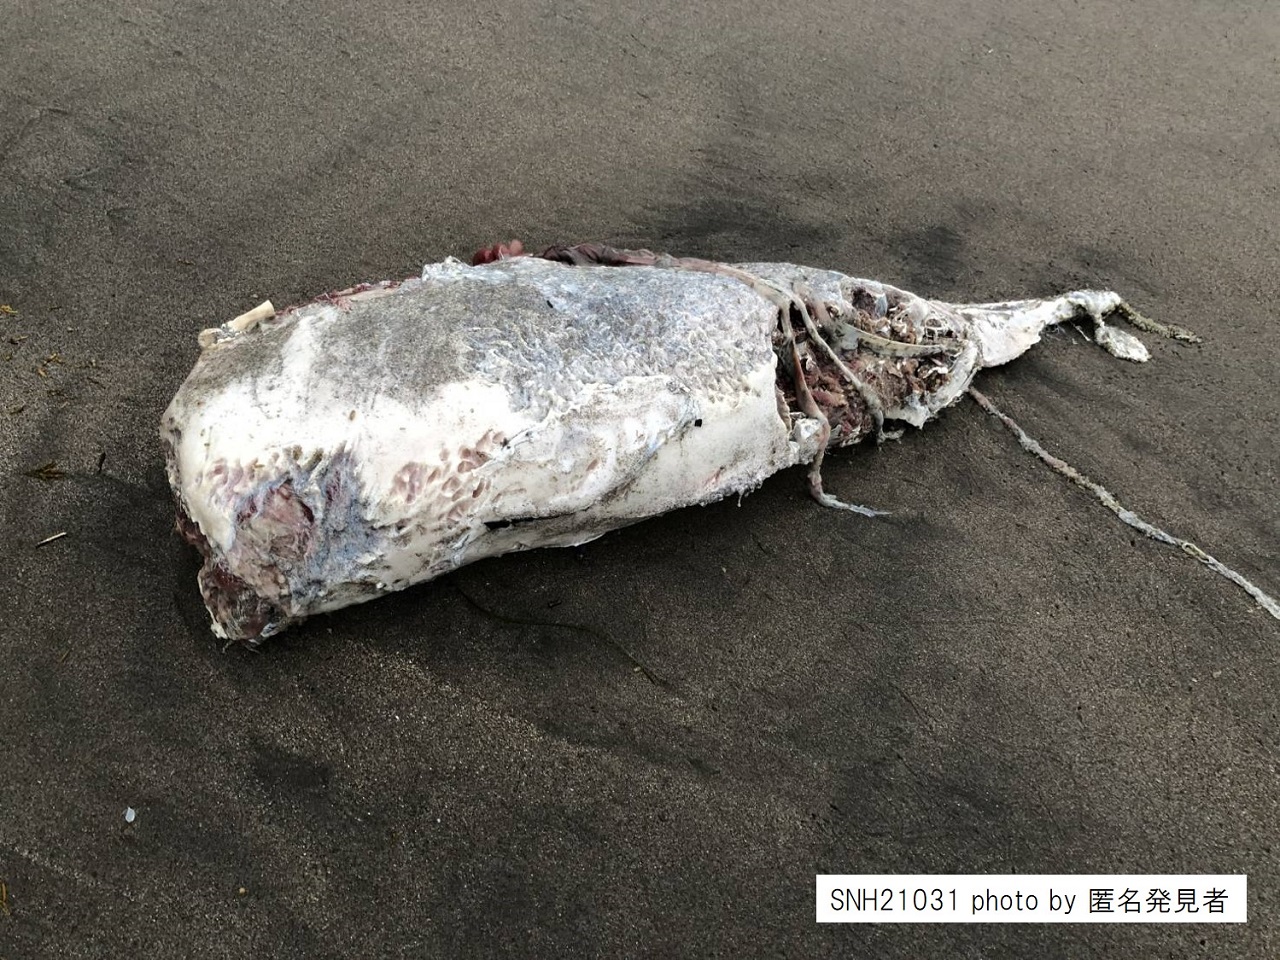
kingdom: Animalia
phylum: Chordata
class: Mammalia
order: Cetacea
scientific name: Cetacea
